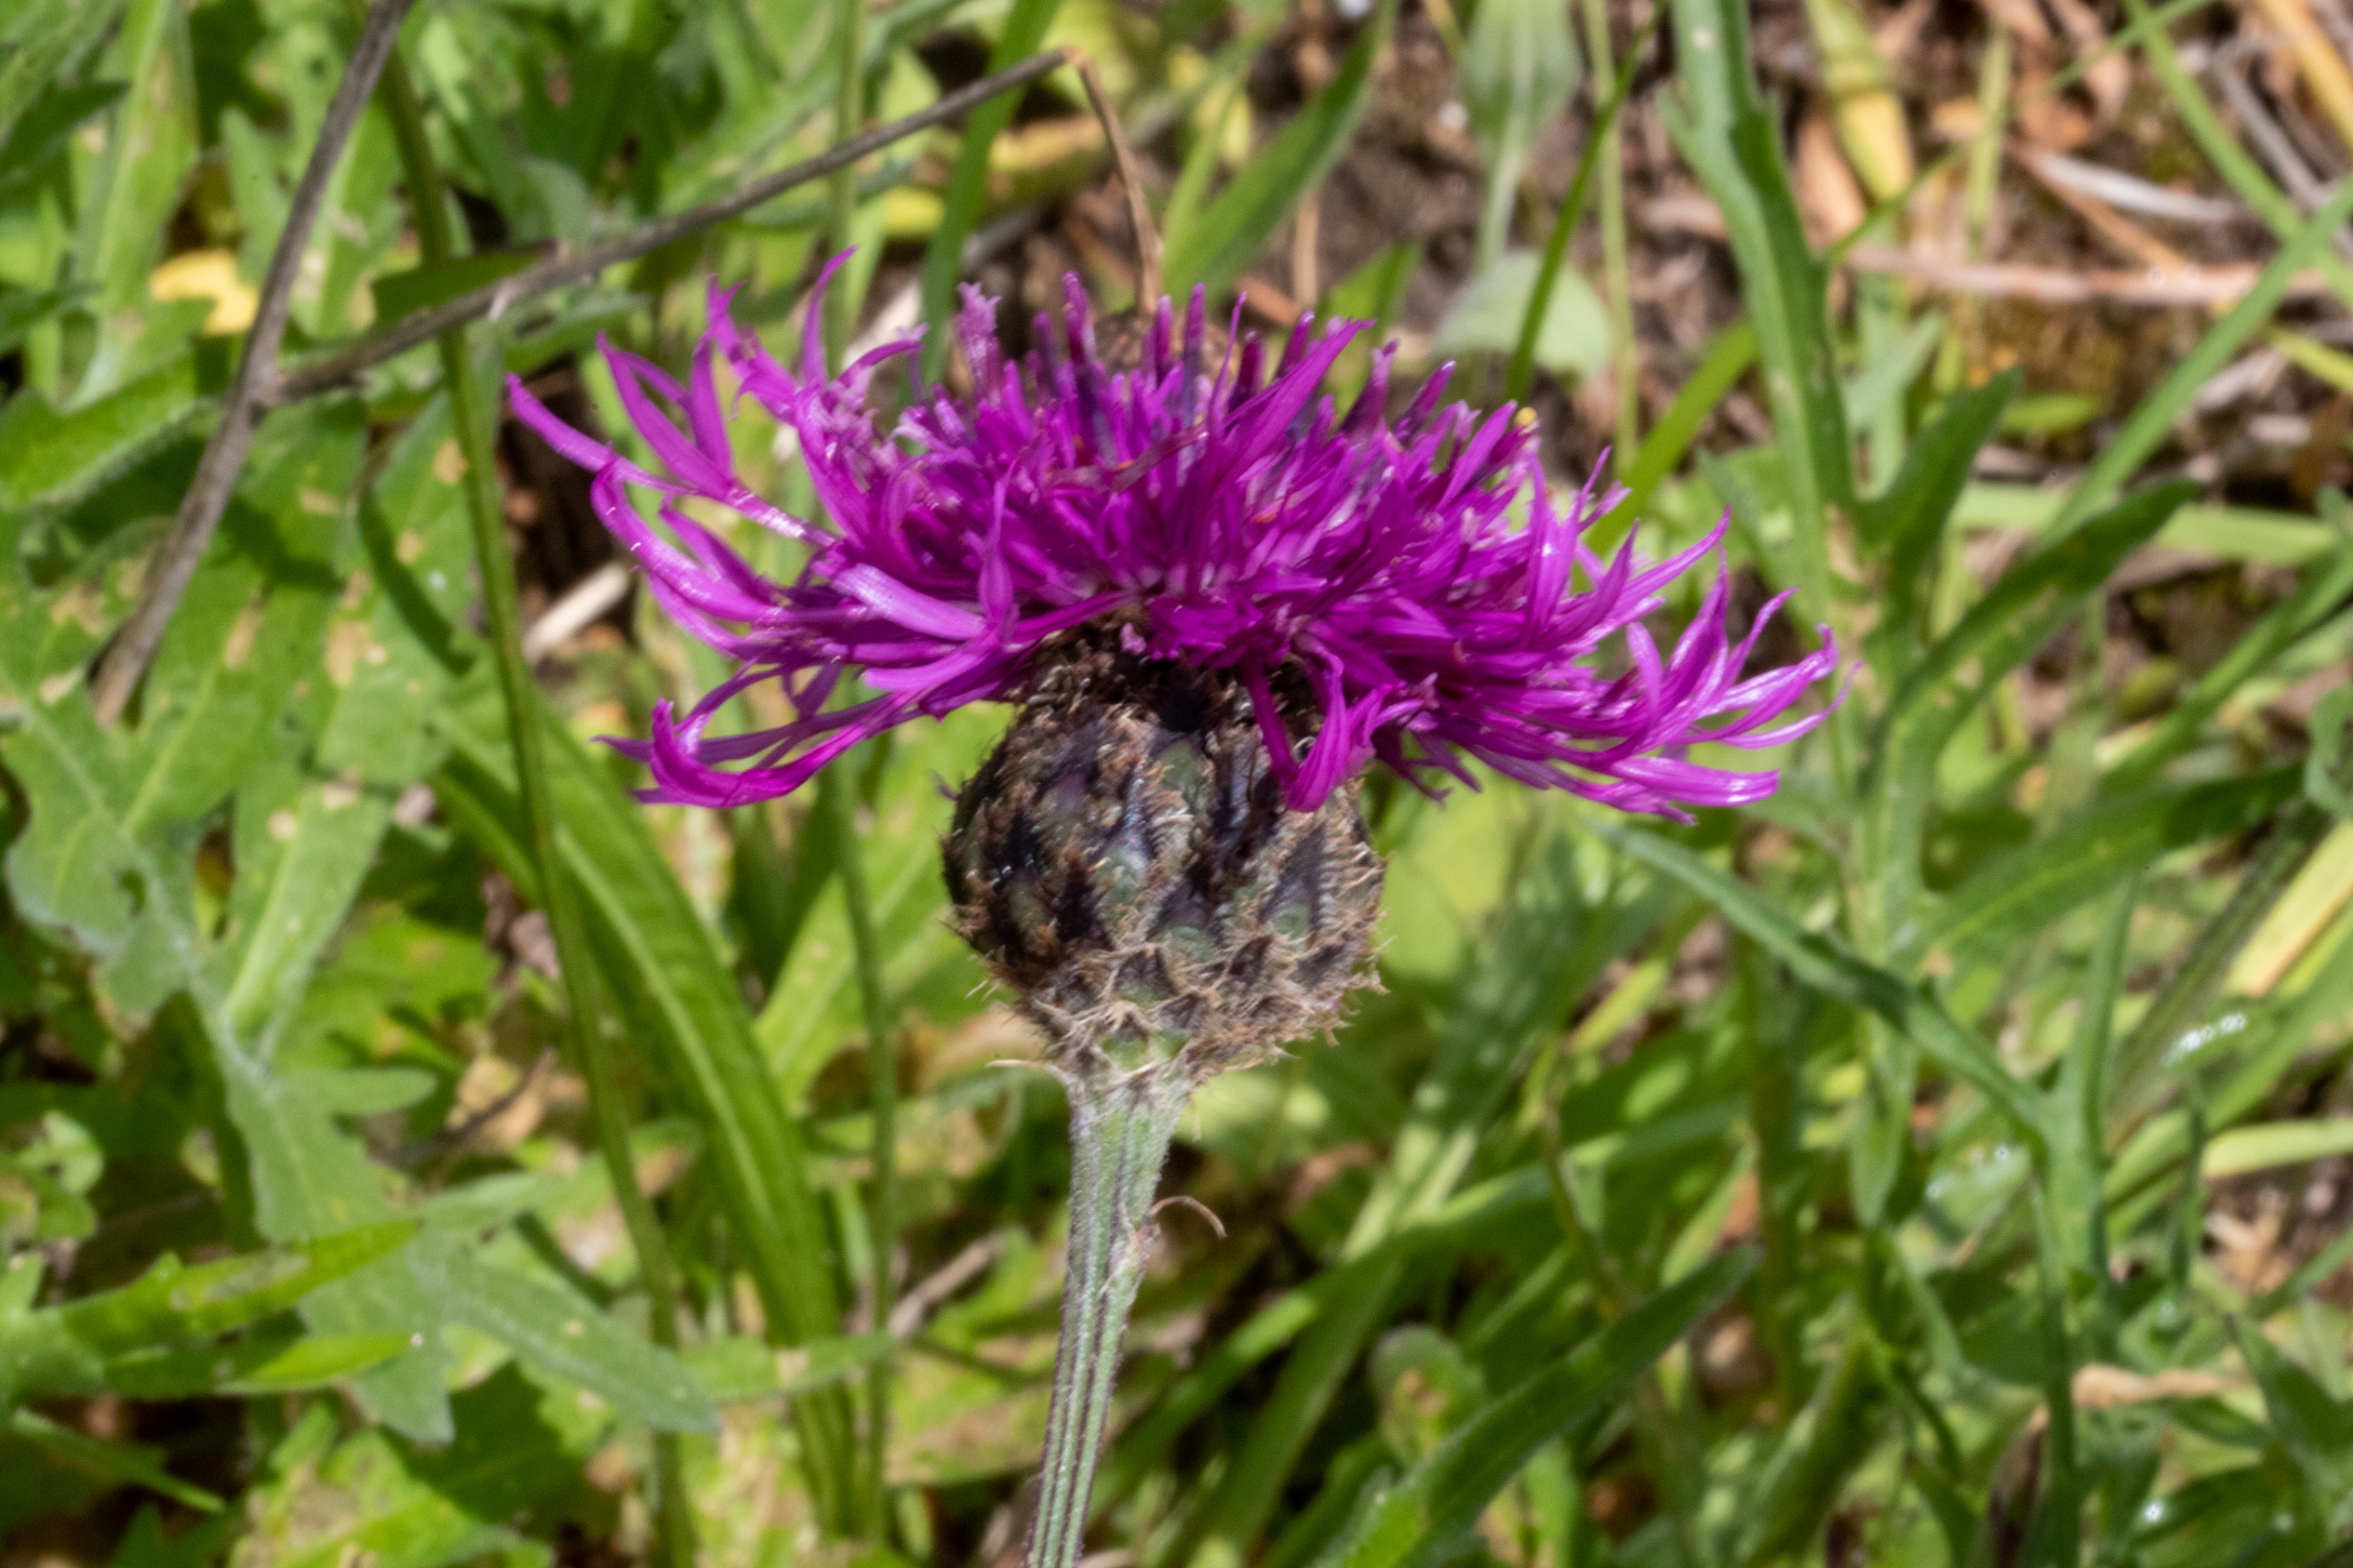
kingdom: Plantae
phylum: Tracheophyta
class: Magnoliopsida
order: Asterales
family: Asteraceae
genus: Centaurea
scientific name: Centaurea scabiosa
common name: Stor knopurt
